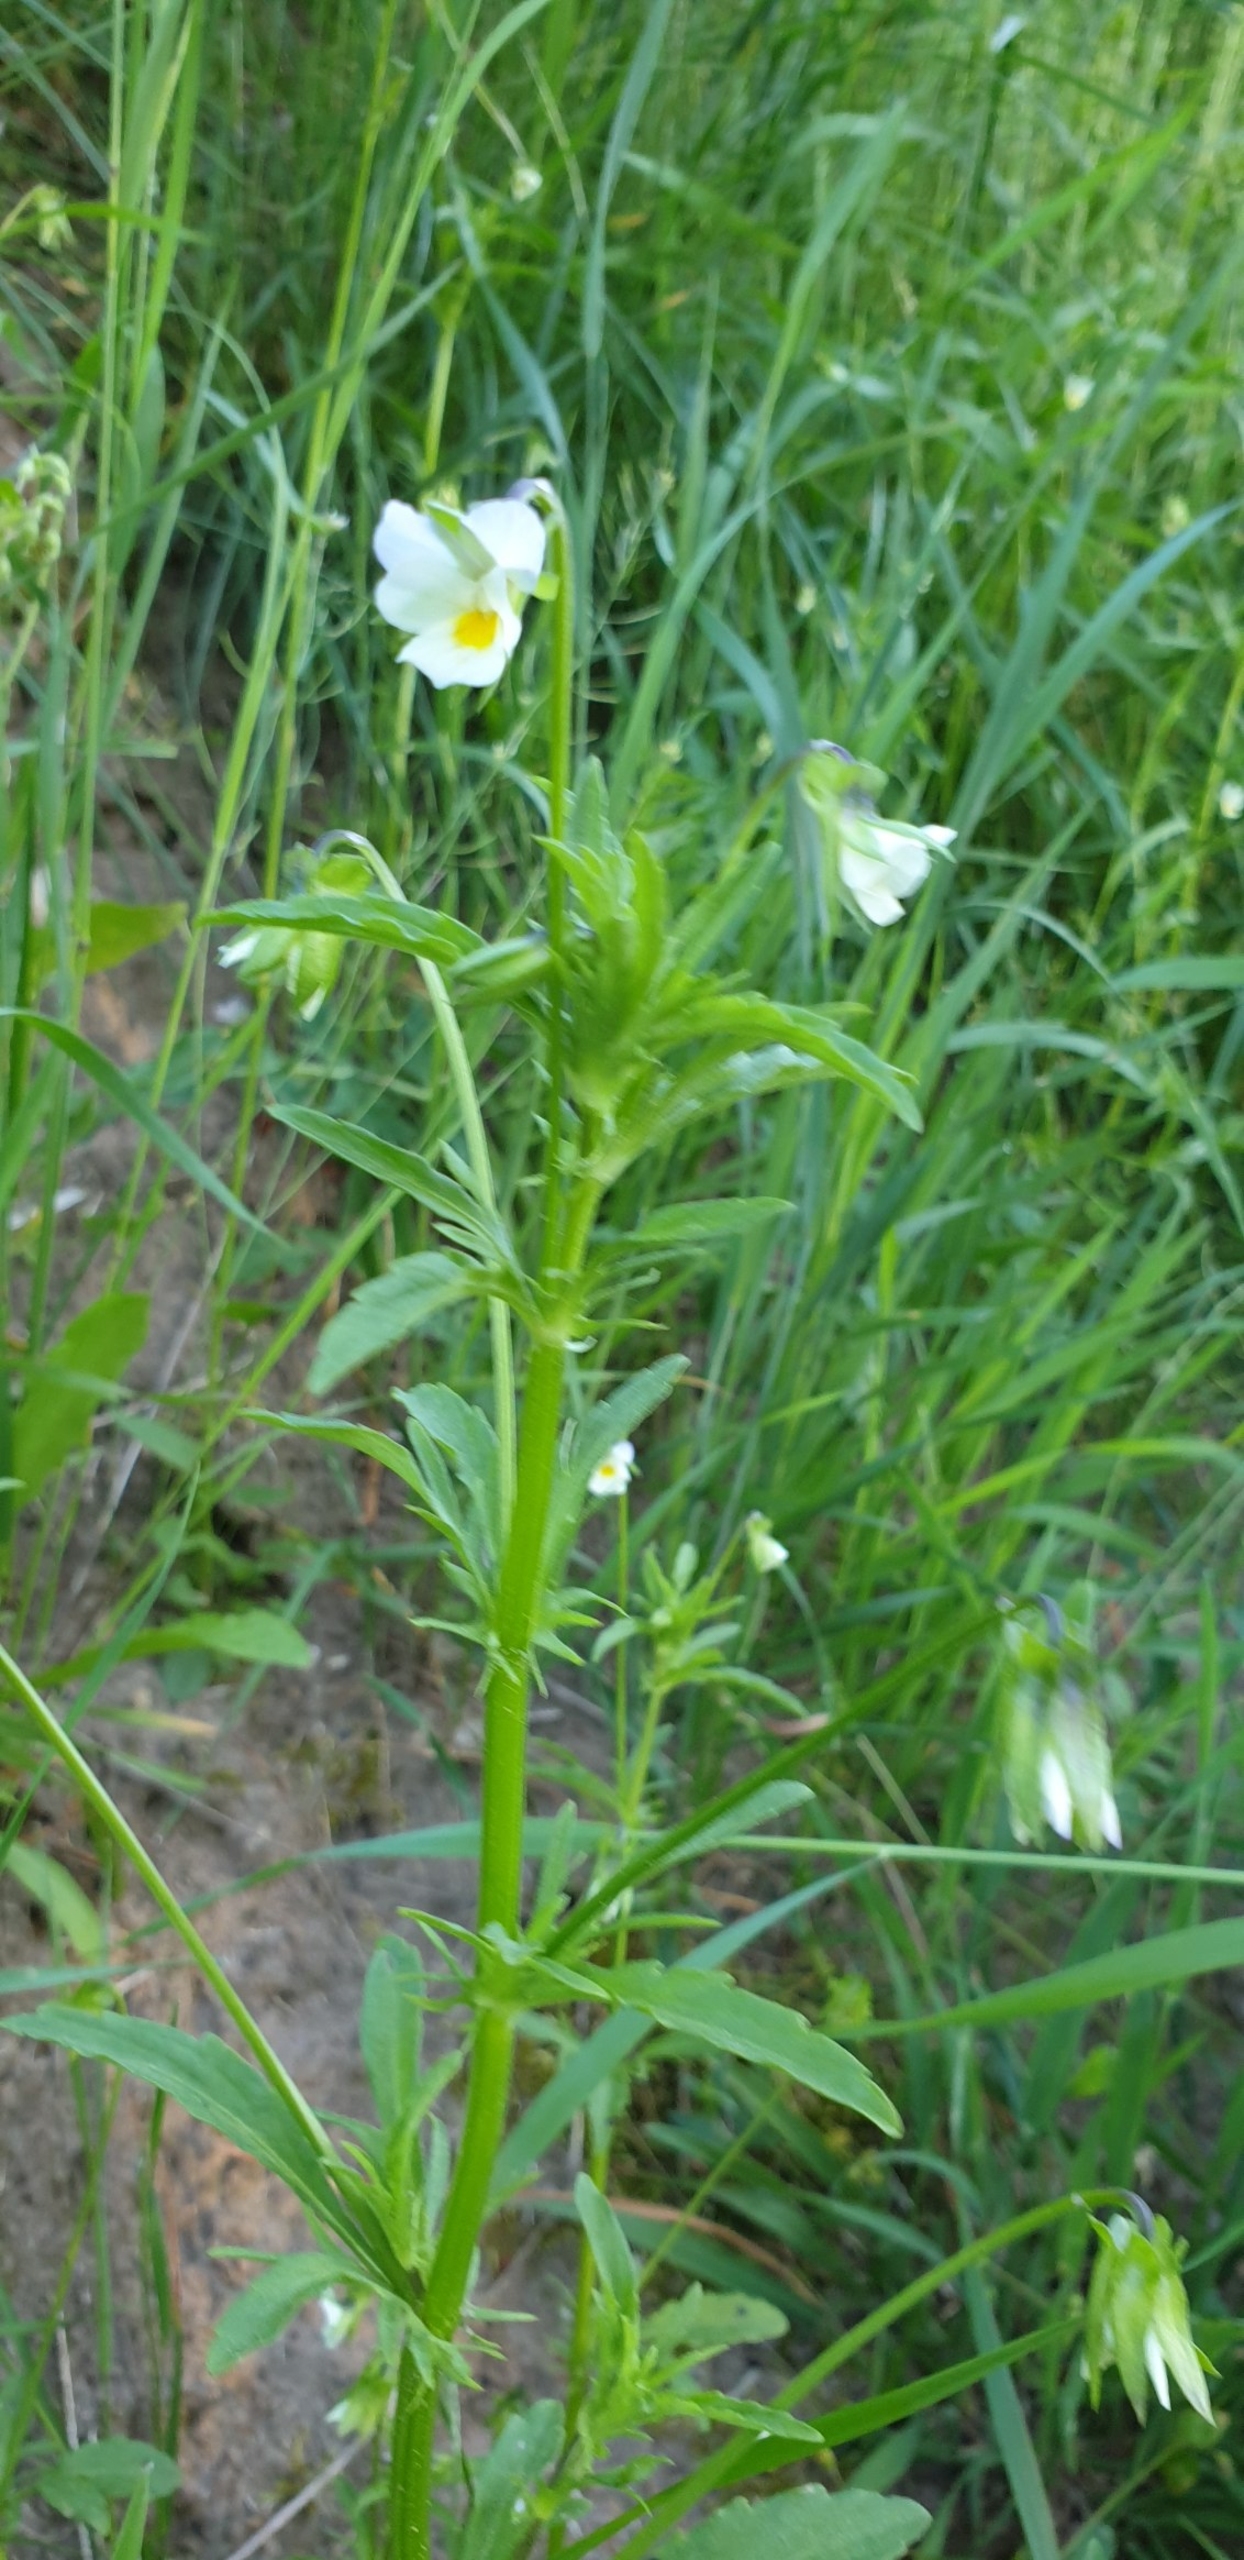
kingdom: Plantae
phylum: Tracheophyta
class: Magnoliopsida
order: Malpighiales
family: Violaceae
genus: Viola
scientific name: Viola arvensis
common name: Ager-stedmoderblomst
